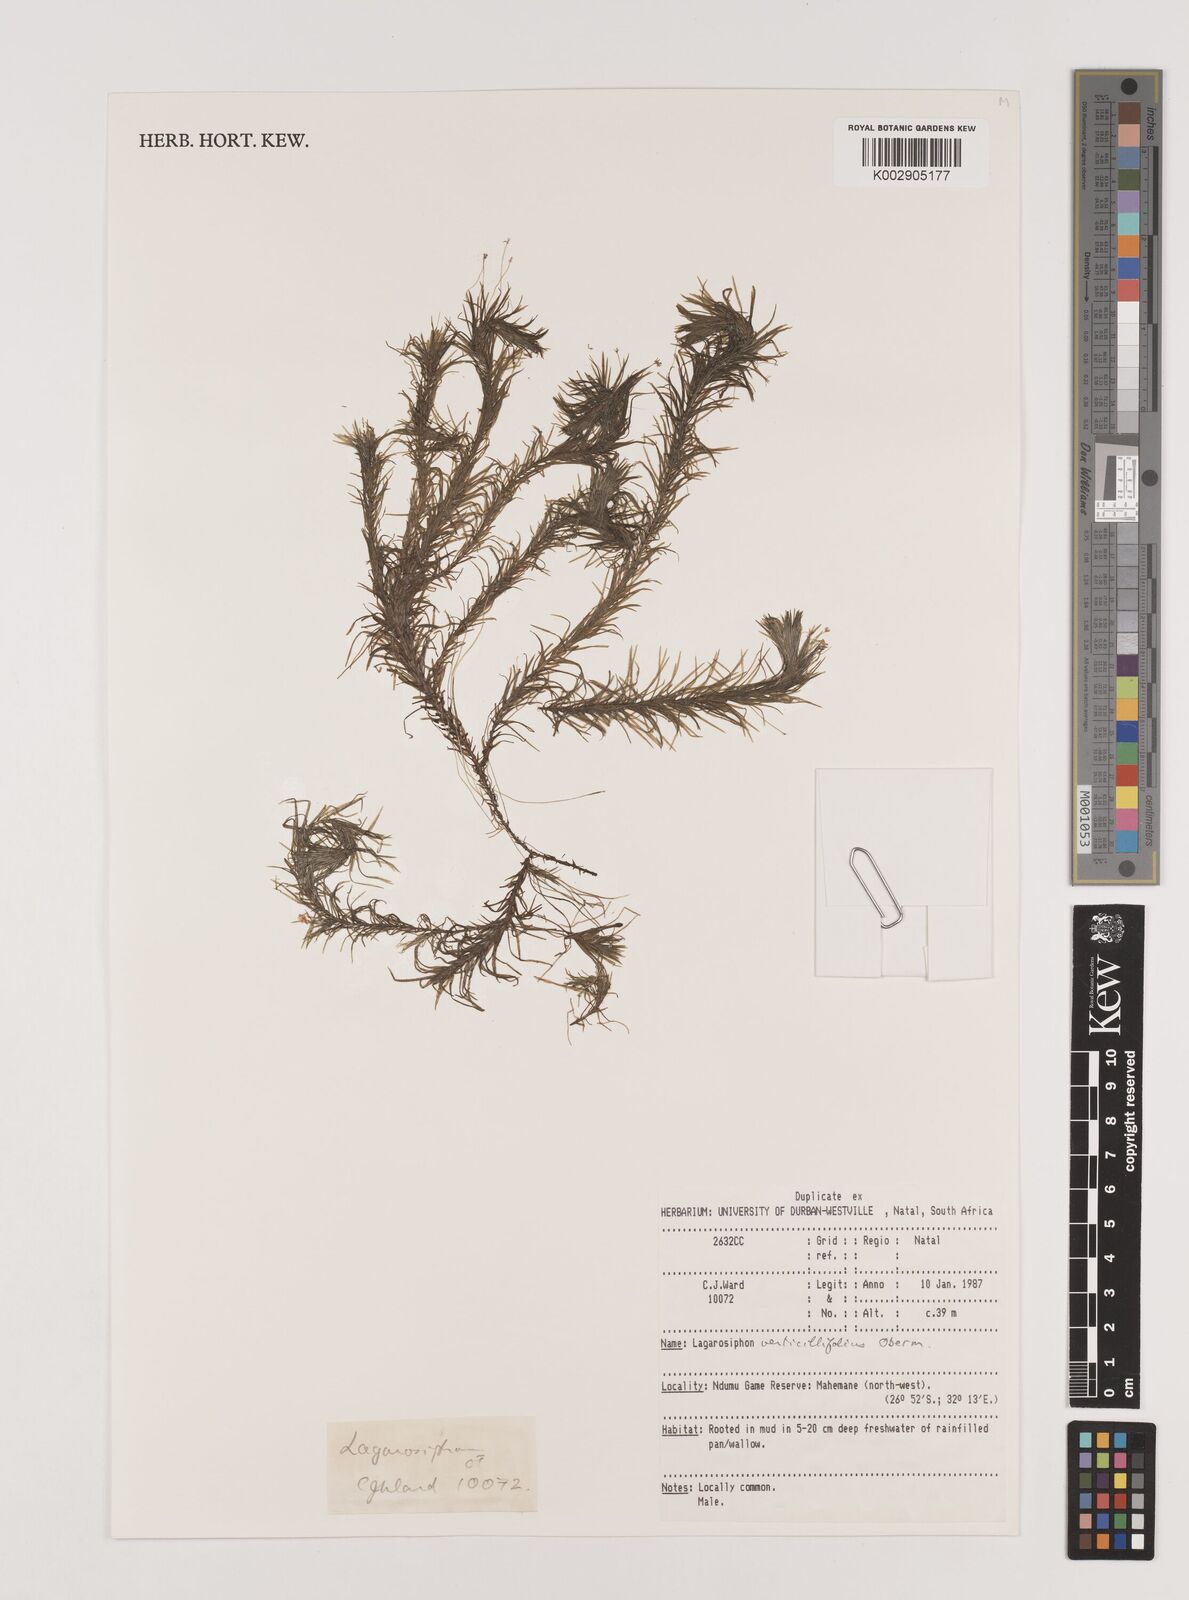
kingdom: Plantae
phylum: Tracheophyta
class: Liliopsida
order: Alismatales
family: Hydrocharitaceae
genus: Lagarosiphon
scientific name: Lagarosiphon verticillifolius
